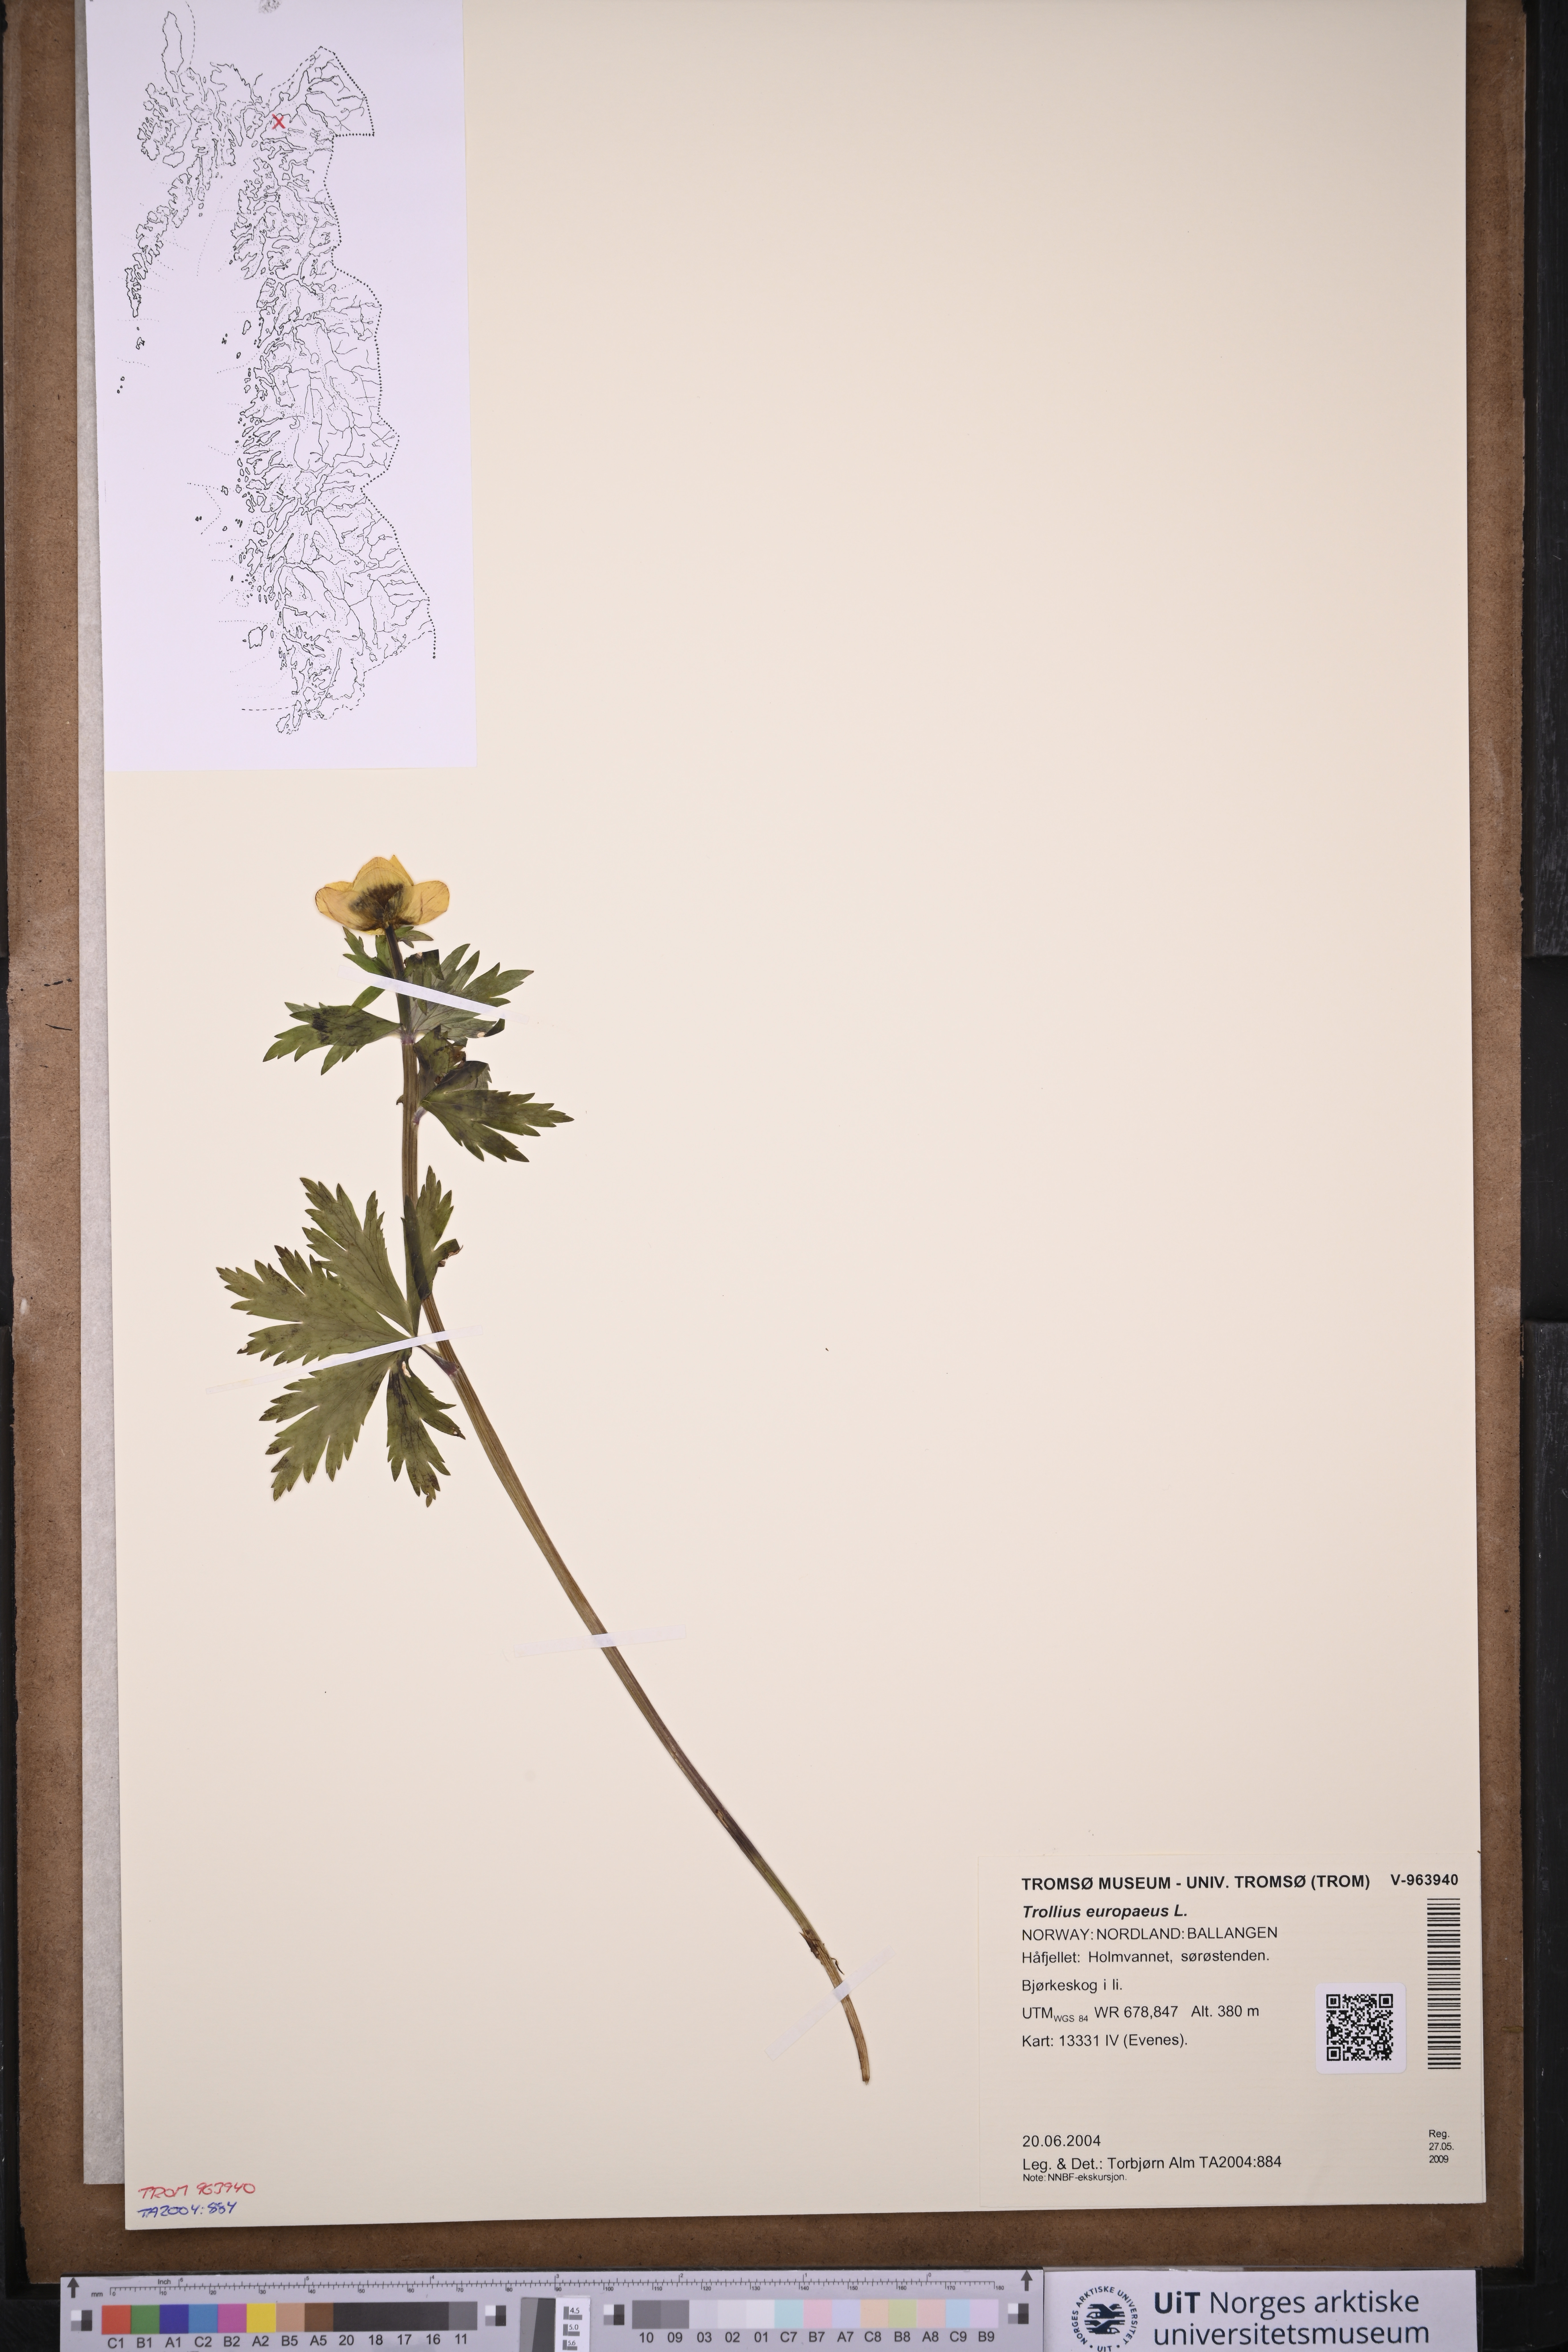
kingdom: Plantae
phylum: Tracheophyta
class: Magnoliopsida
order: Ranunculales
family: Ranunculaceae
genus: Trollius
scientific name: Trollius europaeus
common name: European globeflower
